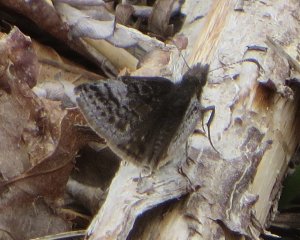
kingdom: Animalia
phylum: Arthropoda
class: Insecta
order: Lepidoptera
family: Hesperiidae
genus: Erynnis
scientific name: Erynnis icelus
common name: Dreamy Duskywing
